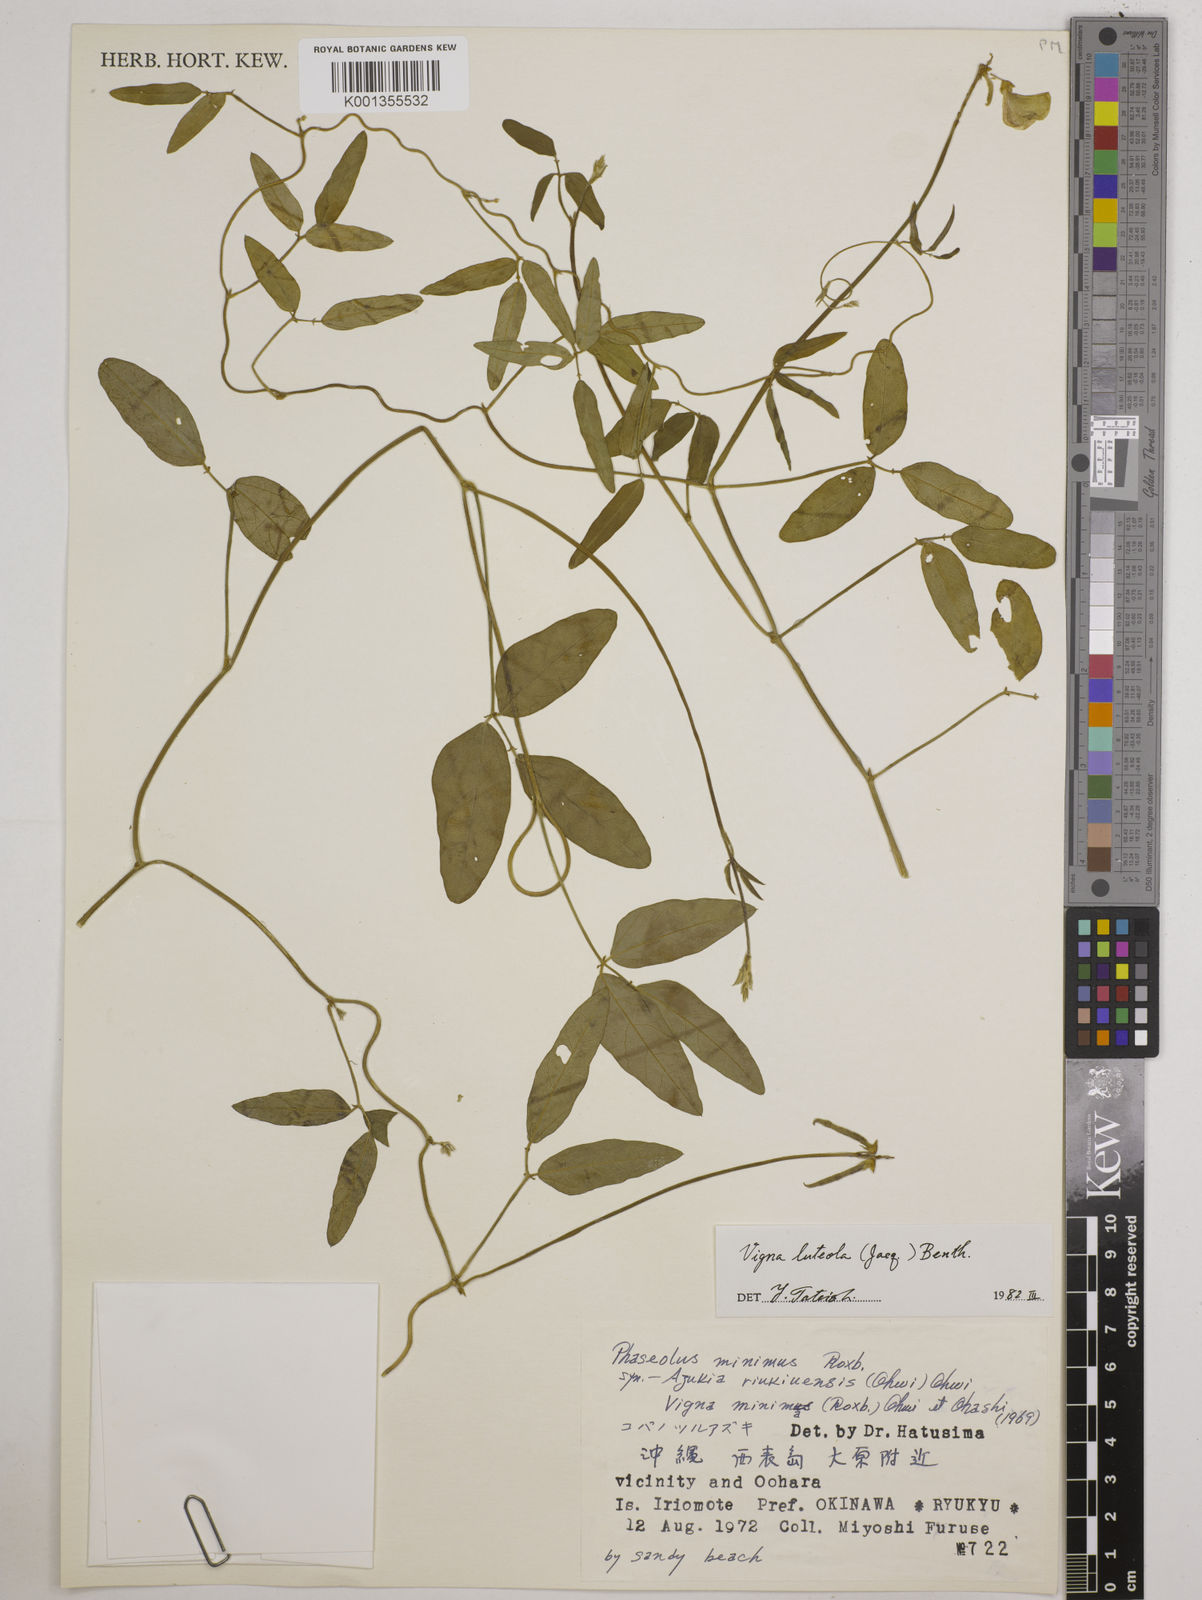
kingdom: Plantae
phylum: Tracheophyta
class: Magnoliopsida
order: Fabales
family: Fabaceae
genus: Vigna
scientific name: Vigna luteola
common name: Hairypod cowpea
